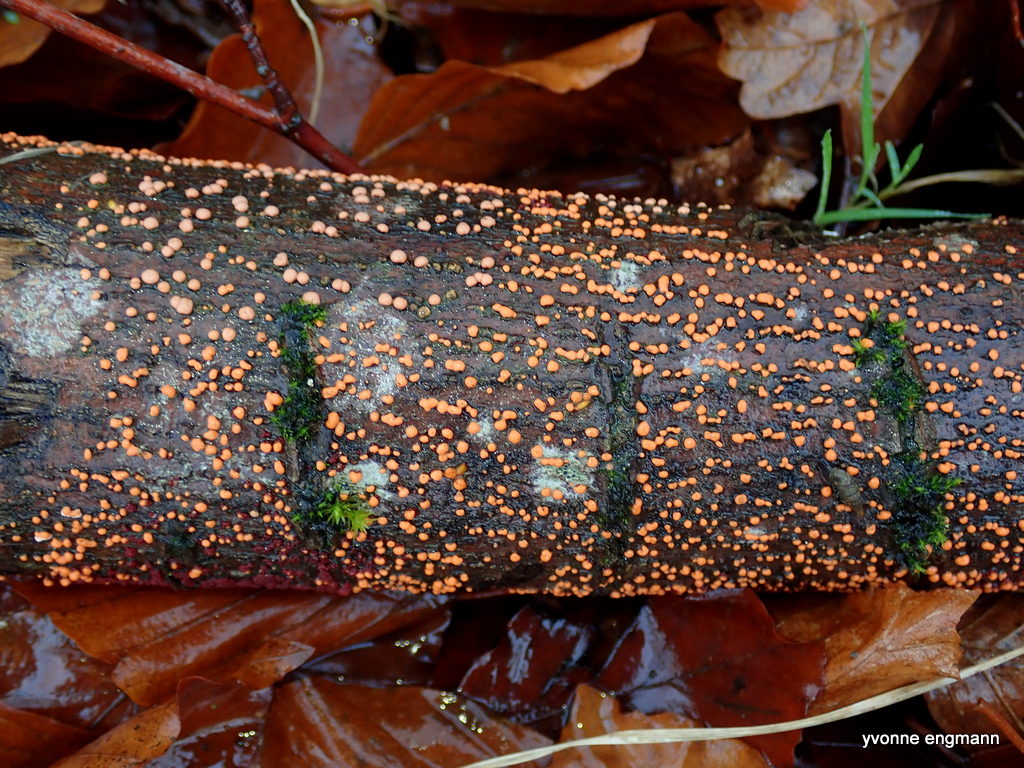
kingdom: Fungi
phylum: Ascomycota
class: Sordariomycetes
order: Hypocreales
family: Nectriaceae
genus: Nectria
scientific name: Nectria cinnabarina
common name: almindelig cinnobersvamp
